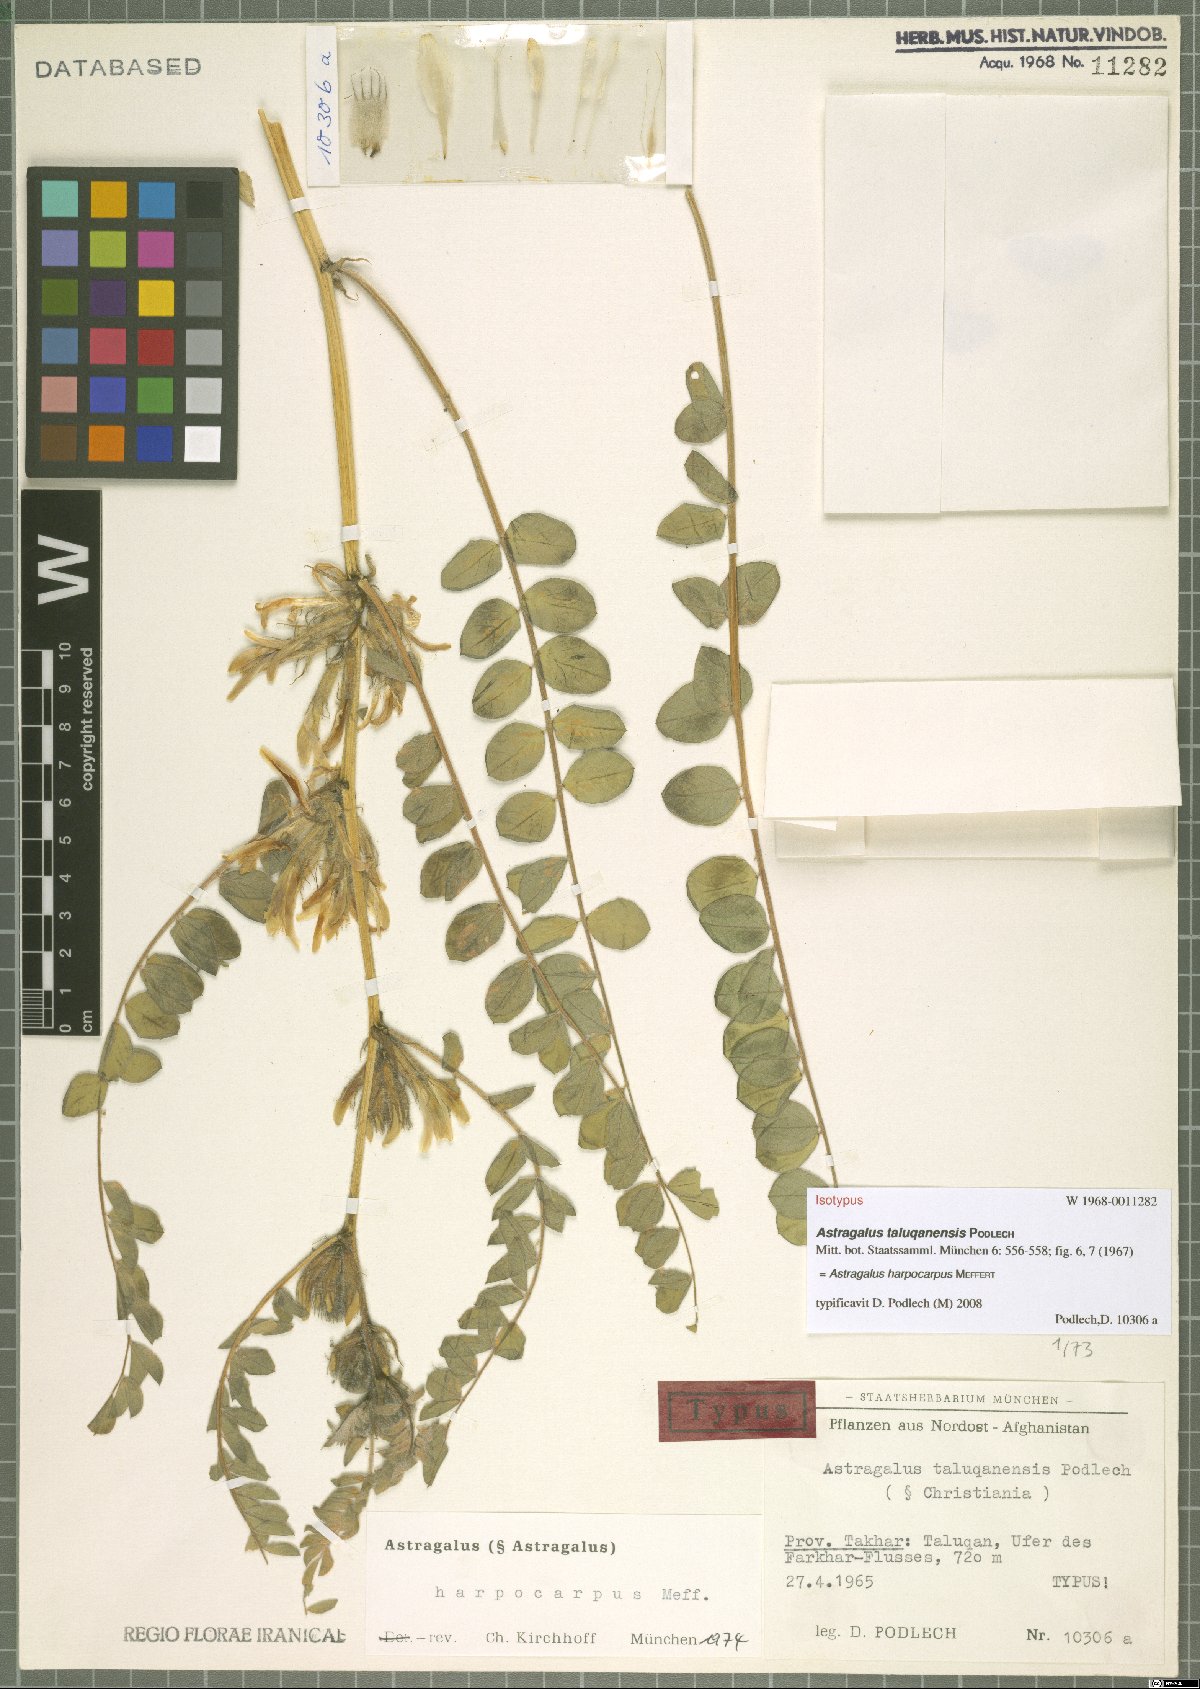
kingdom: Plantae
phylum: Tracheophyta
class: Magnoliopsida
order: Fabales
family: Fabaceae
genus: Astragalus
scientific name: Astragalus harpocarpus
